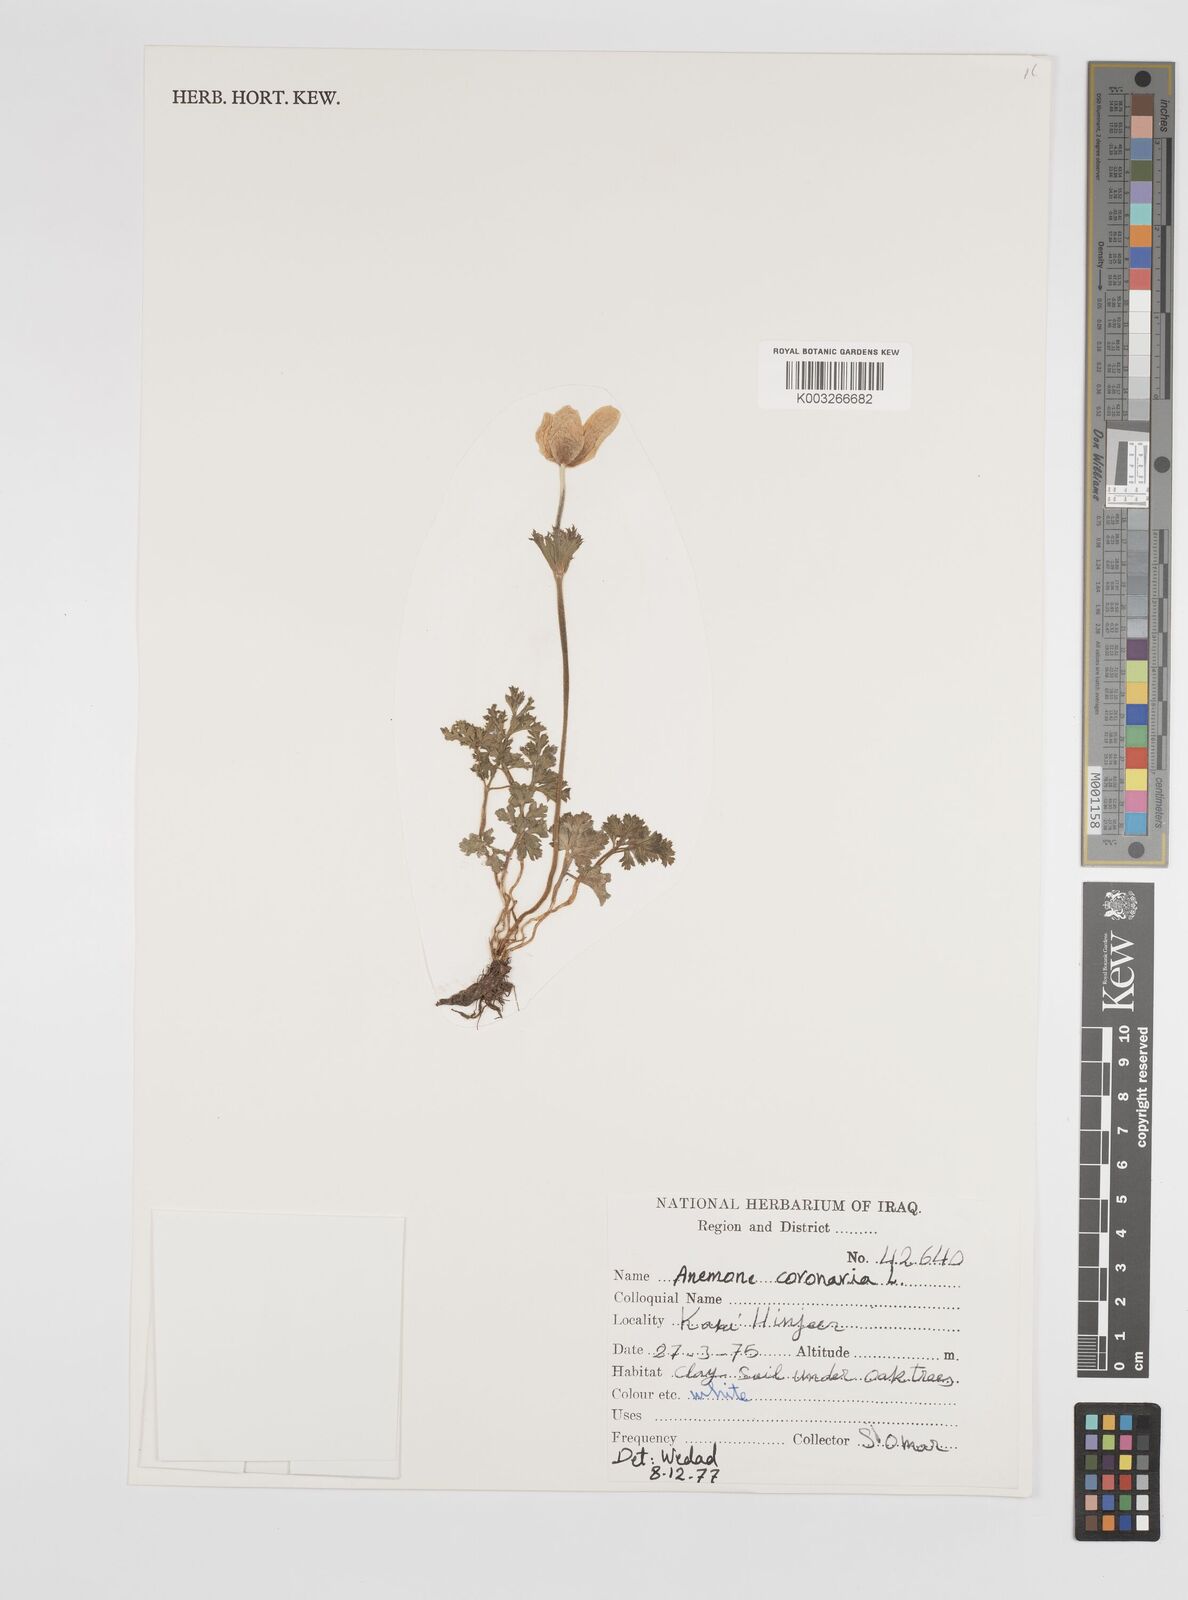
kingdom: Plantae
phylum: Tracheophyta
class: Magnoliopsida
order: Ranunculales
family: Ranunculaceae
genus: Anemone
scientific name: Anemone coronaria
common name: Poppy anemone
